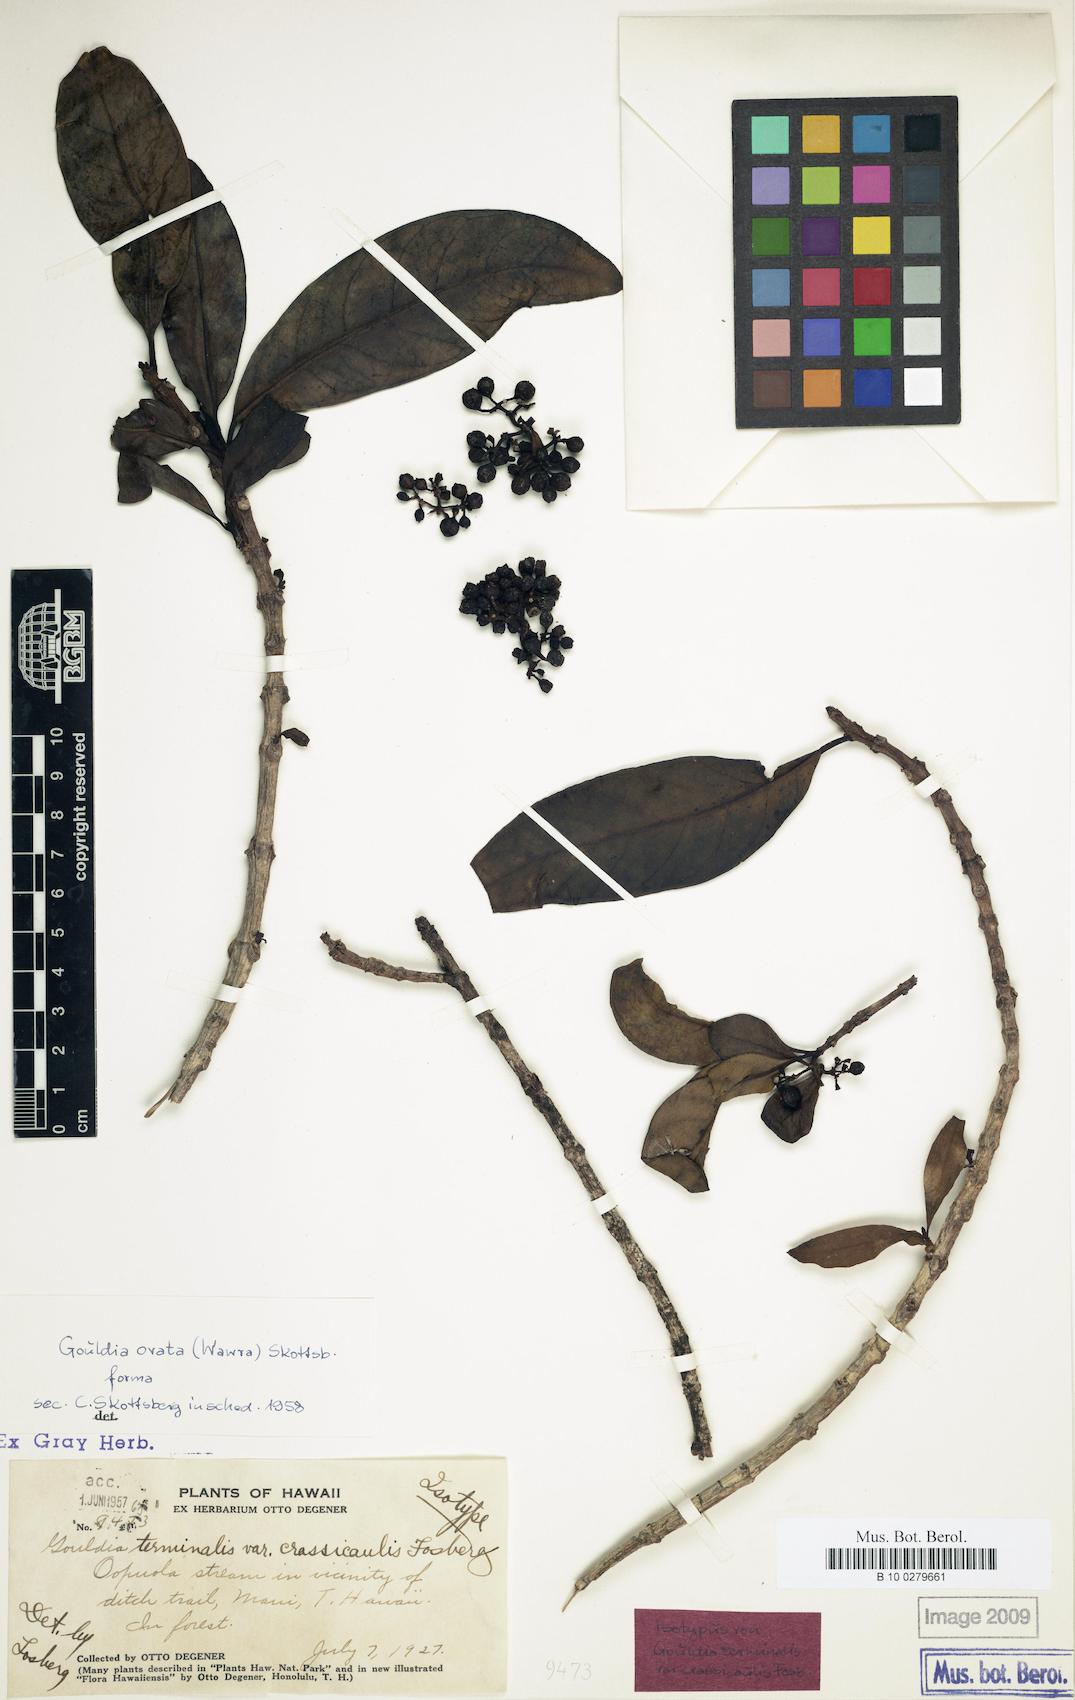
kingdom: Plantae
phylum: Tracheophyta
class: Magnoliopsida
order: Gentianales
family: Rubiaceae
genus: Kadua
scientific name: Kadua affinis
